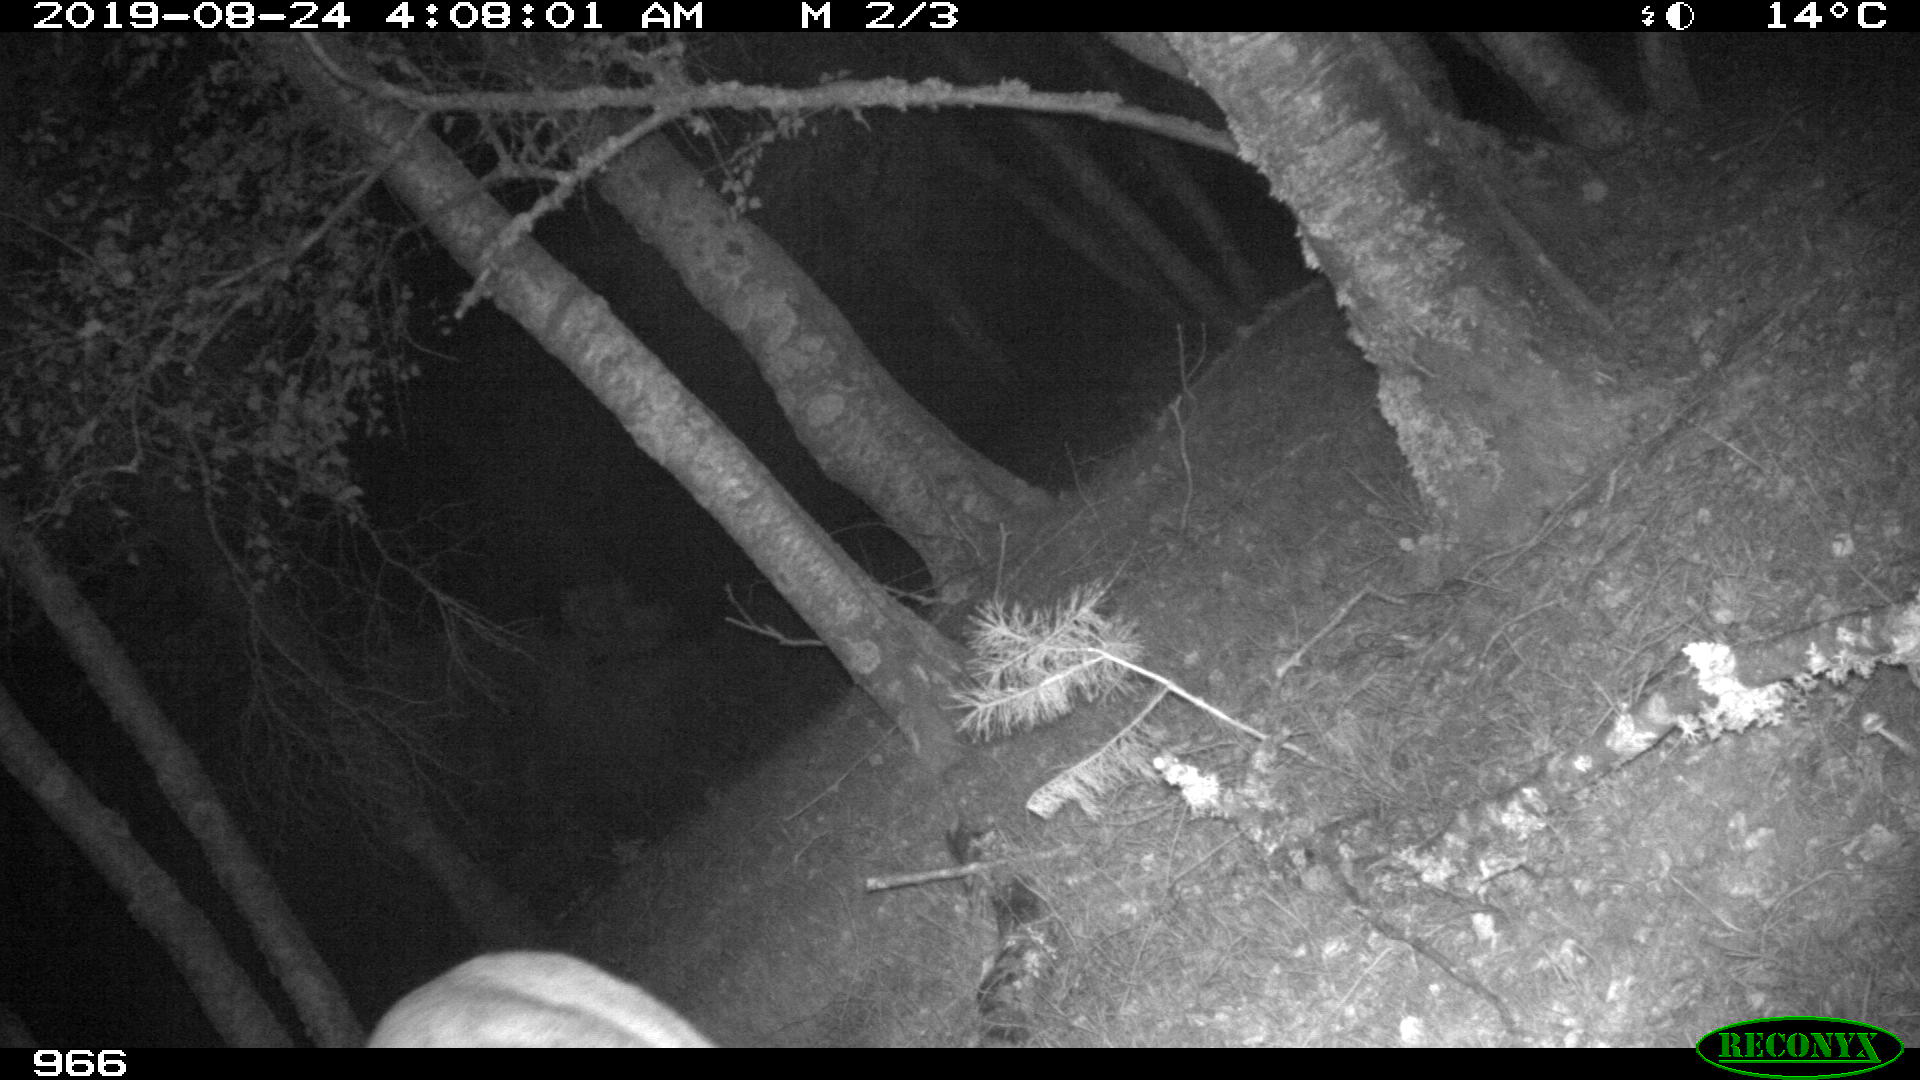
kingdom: Animalia
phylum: Chordata
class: Mammalia
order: Artiodactyla
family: Cervidae
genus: Capreolus
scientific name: Capreolus capreolus
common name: Western roe deer
